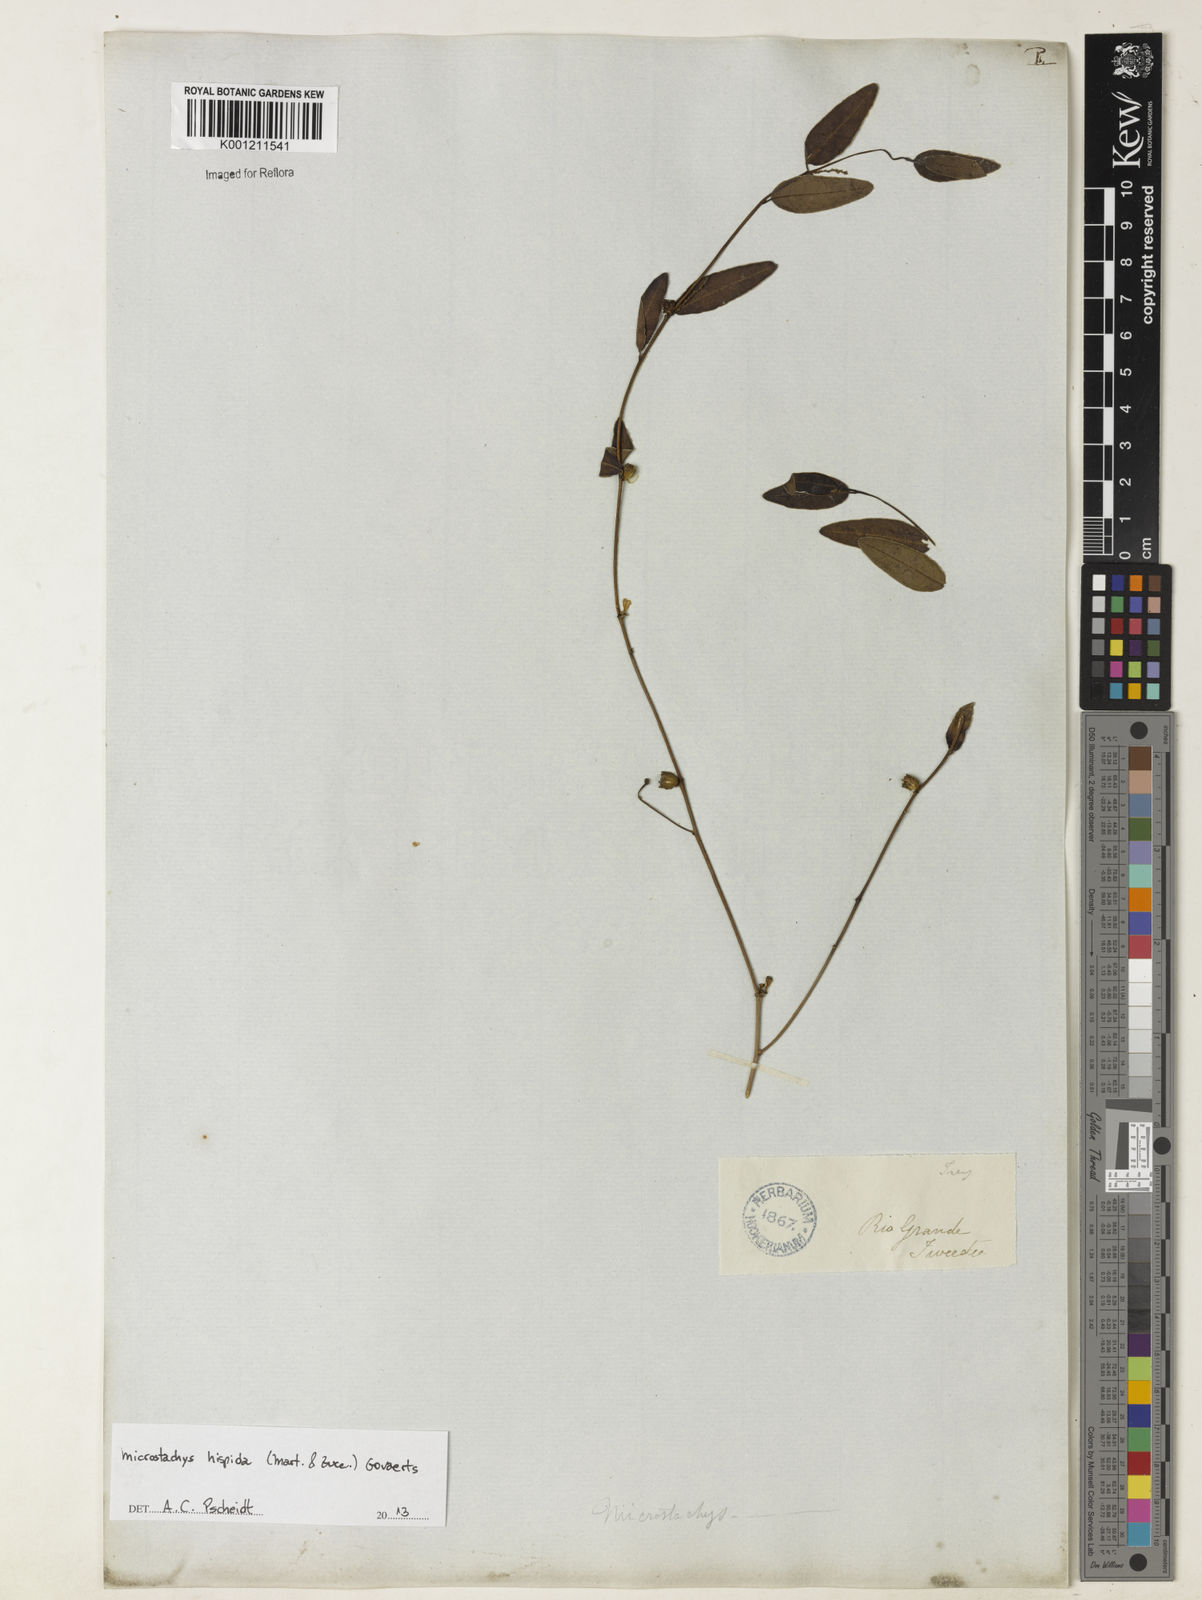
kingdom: Plantae
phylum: Tracheophyta
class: Magnoliopsida
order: Malpighiales
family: Euphorbiaceae
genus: Microstachys
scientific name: Microstachys hispida
